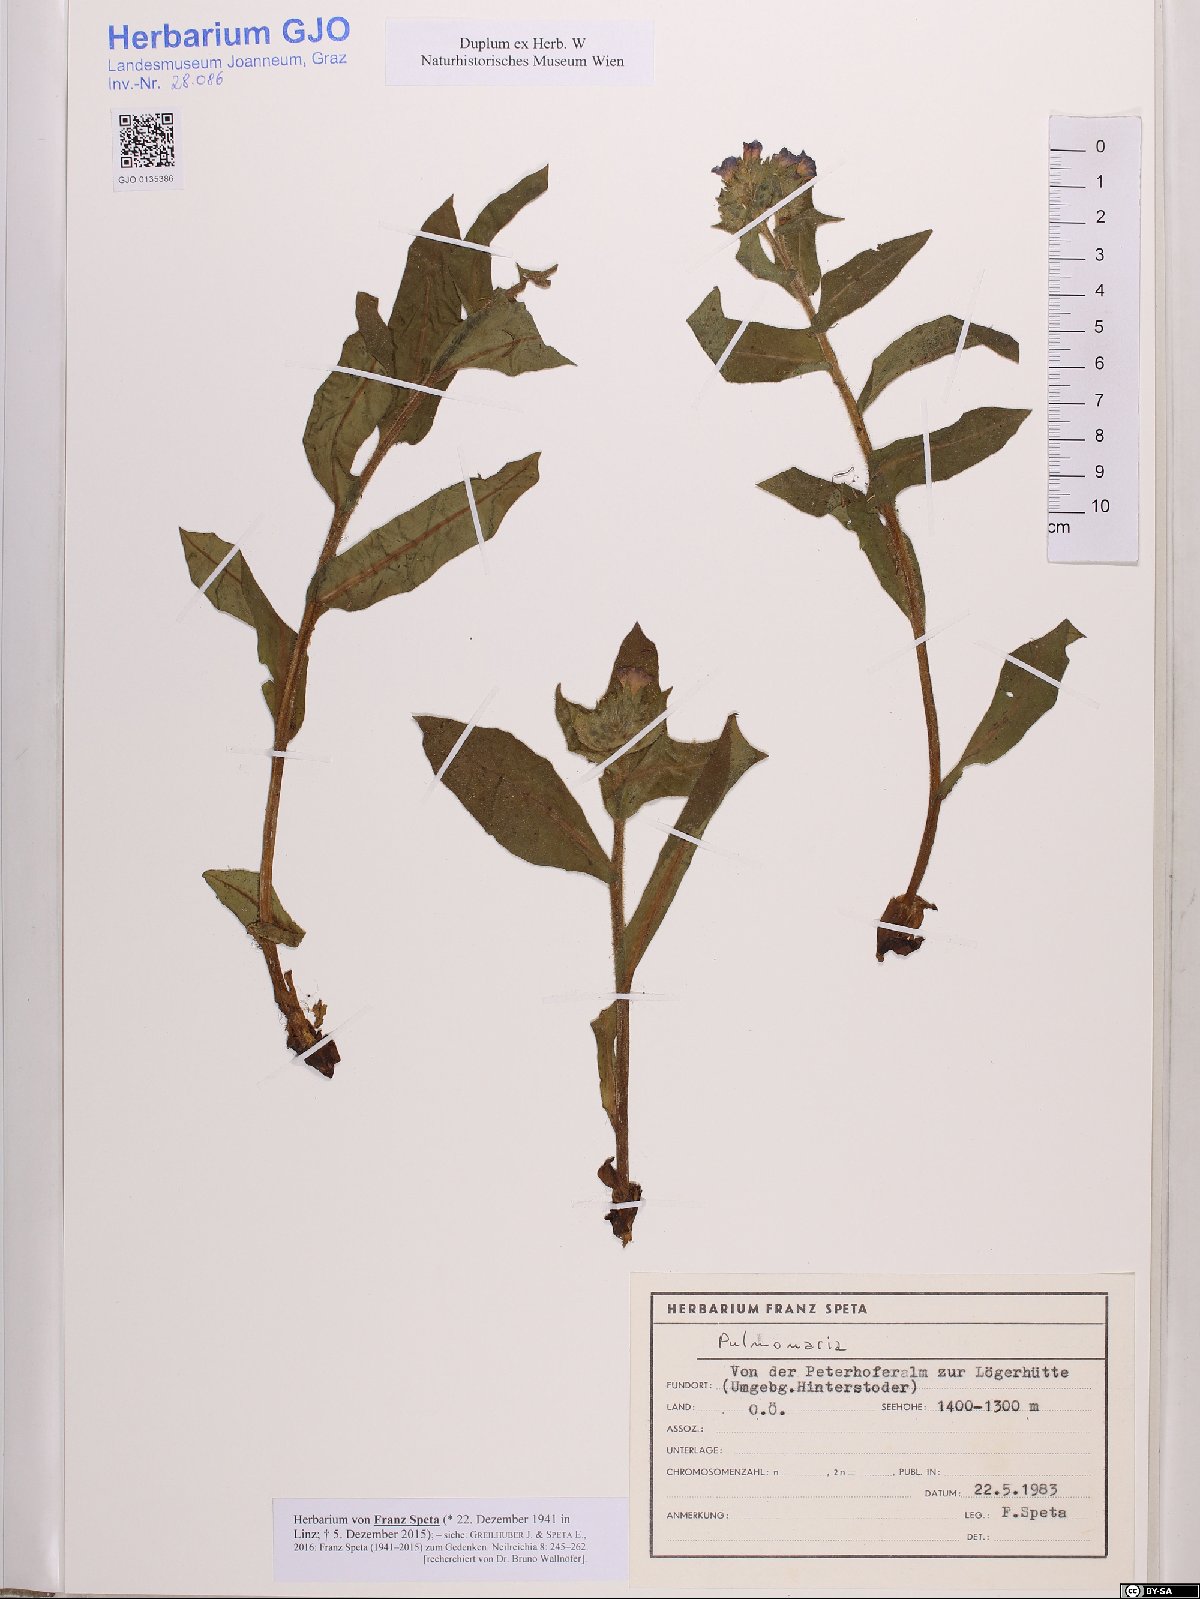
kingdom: Plantae
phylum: Tracheophyta
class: Magnoliopsida
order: Boraginales
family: Boraginaceae
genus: Pulmonaria
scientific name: Pulmonaria
